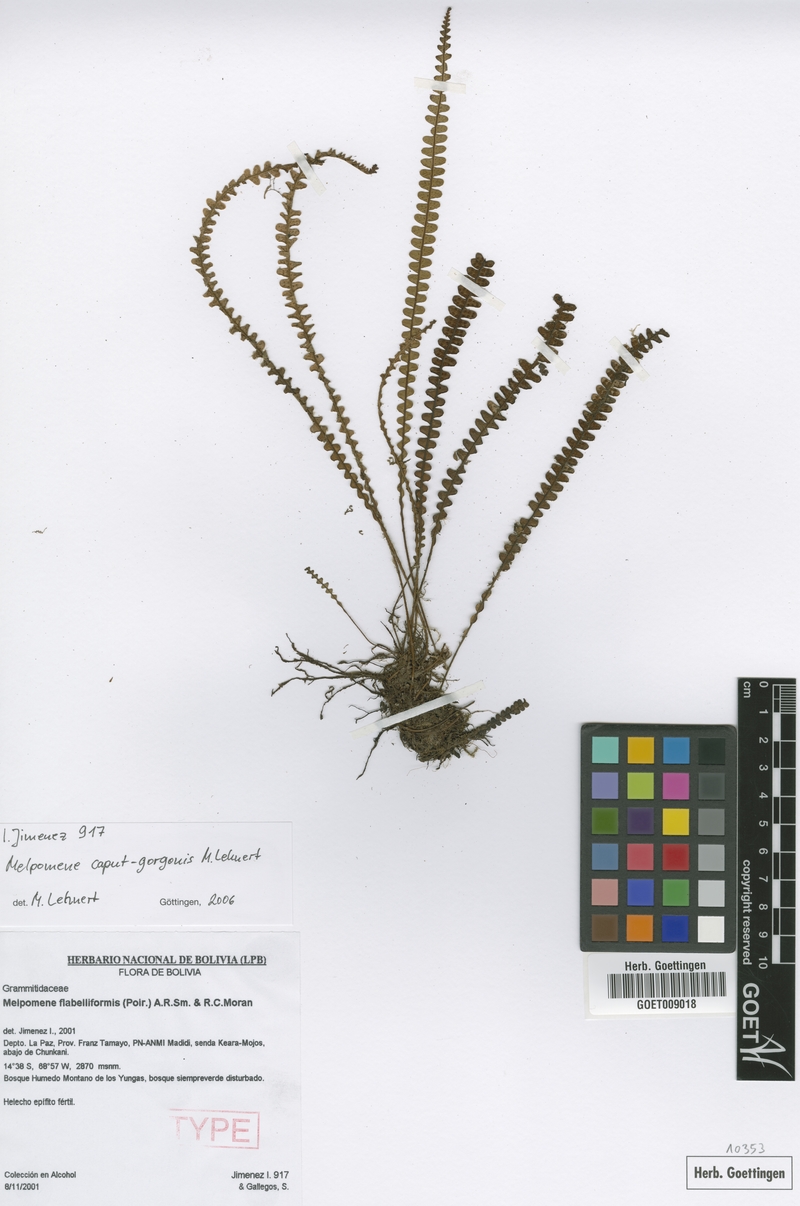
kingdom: Plantae
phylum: Tracheophyta
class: Polypodiopsida
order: Polypodiales
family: Polypodiaceae
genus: Melpomene
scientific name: Melpomene caput-gorgonis
